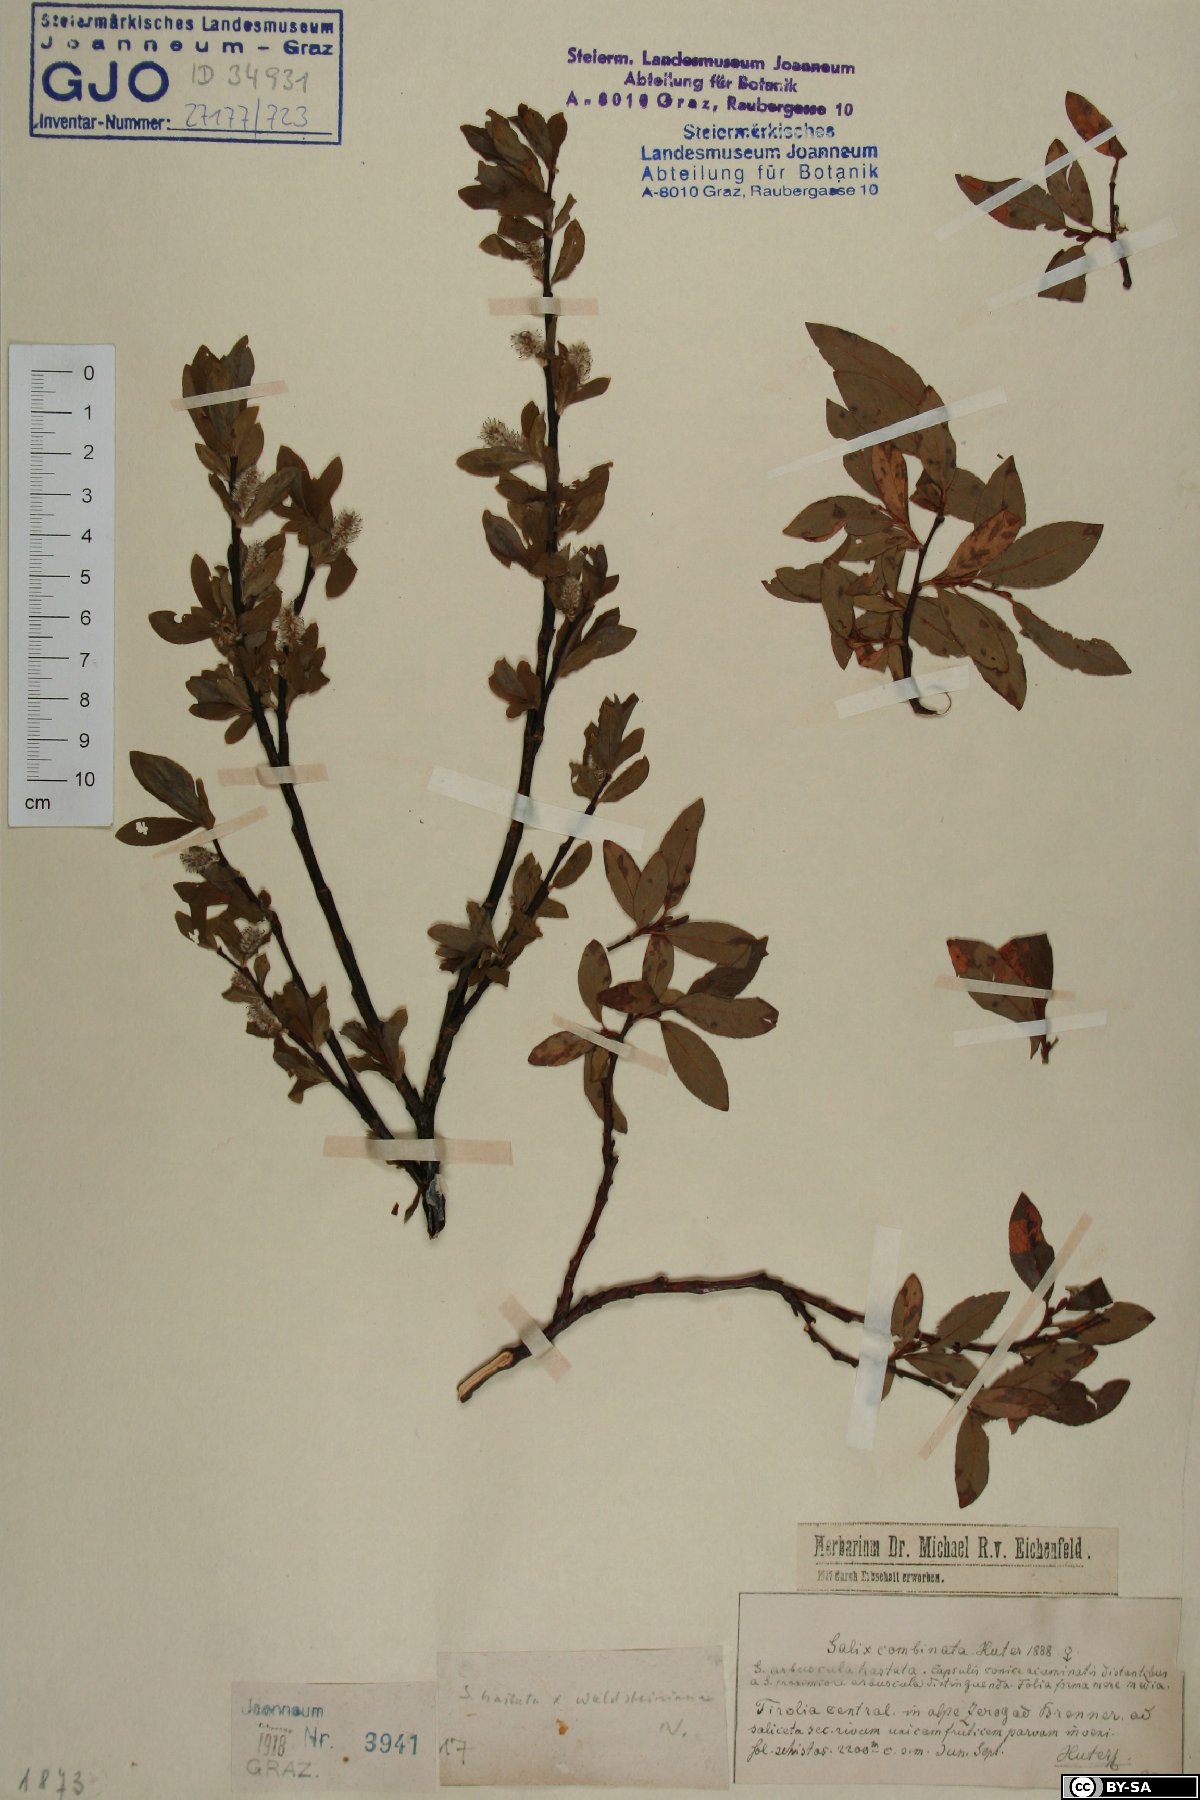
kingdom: Plantae
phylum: Tracheophyta
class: Magnoliopsida
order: Malpighiales
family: Salicaceae
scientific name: Salicaceae
